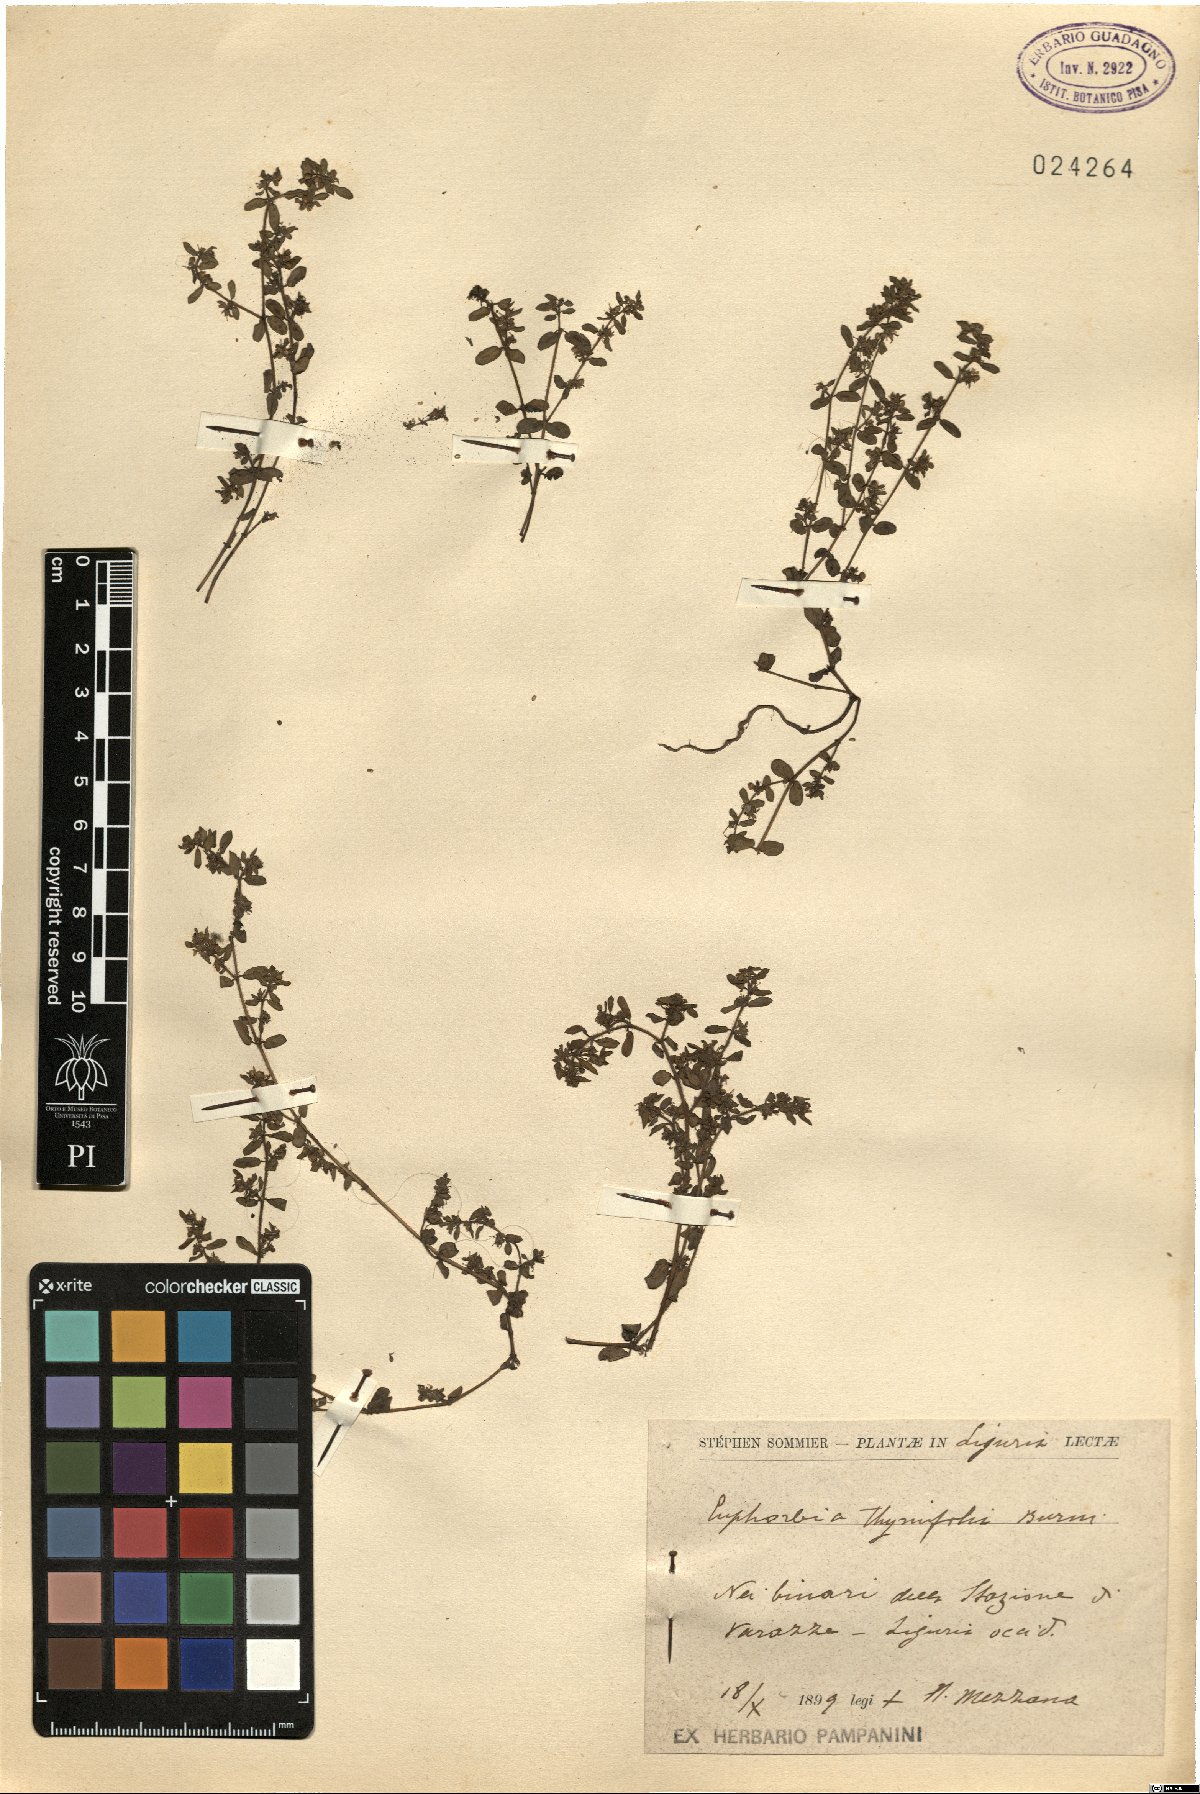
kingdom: Plantae
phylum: Tracheophyta
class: Magnoliopsida
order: Malpighiales
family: Euphorbiaceae
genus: Euphorbia
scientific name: Euphorbia thymifolia
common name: Gulf sandmat
